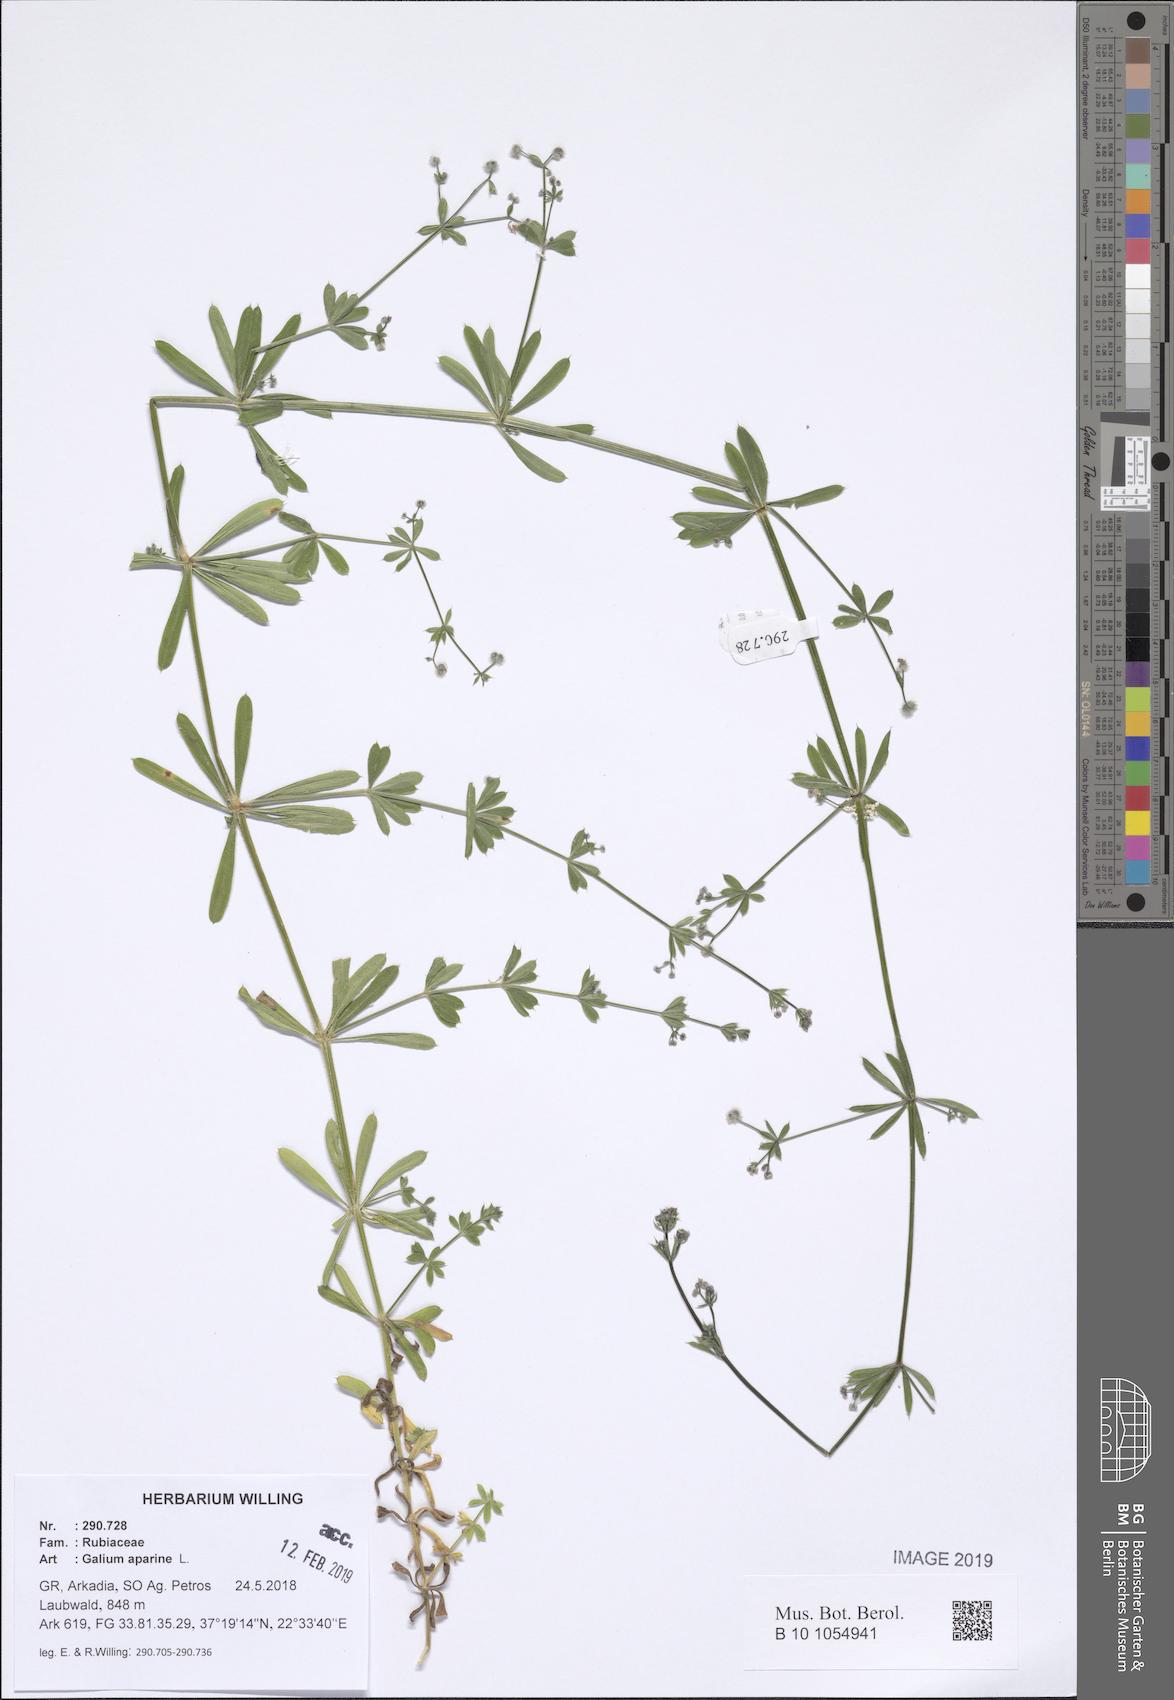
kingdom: Plantae
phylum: Tracheophyta
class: Magnoliopsida
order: Gentianales
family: Rubiaceae
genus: Galium
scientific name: Galium aparine
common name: Cleavers
